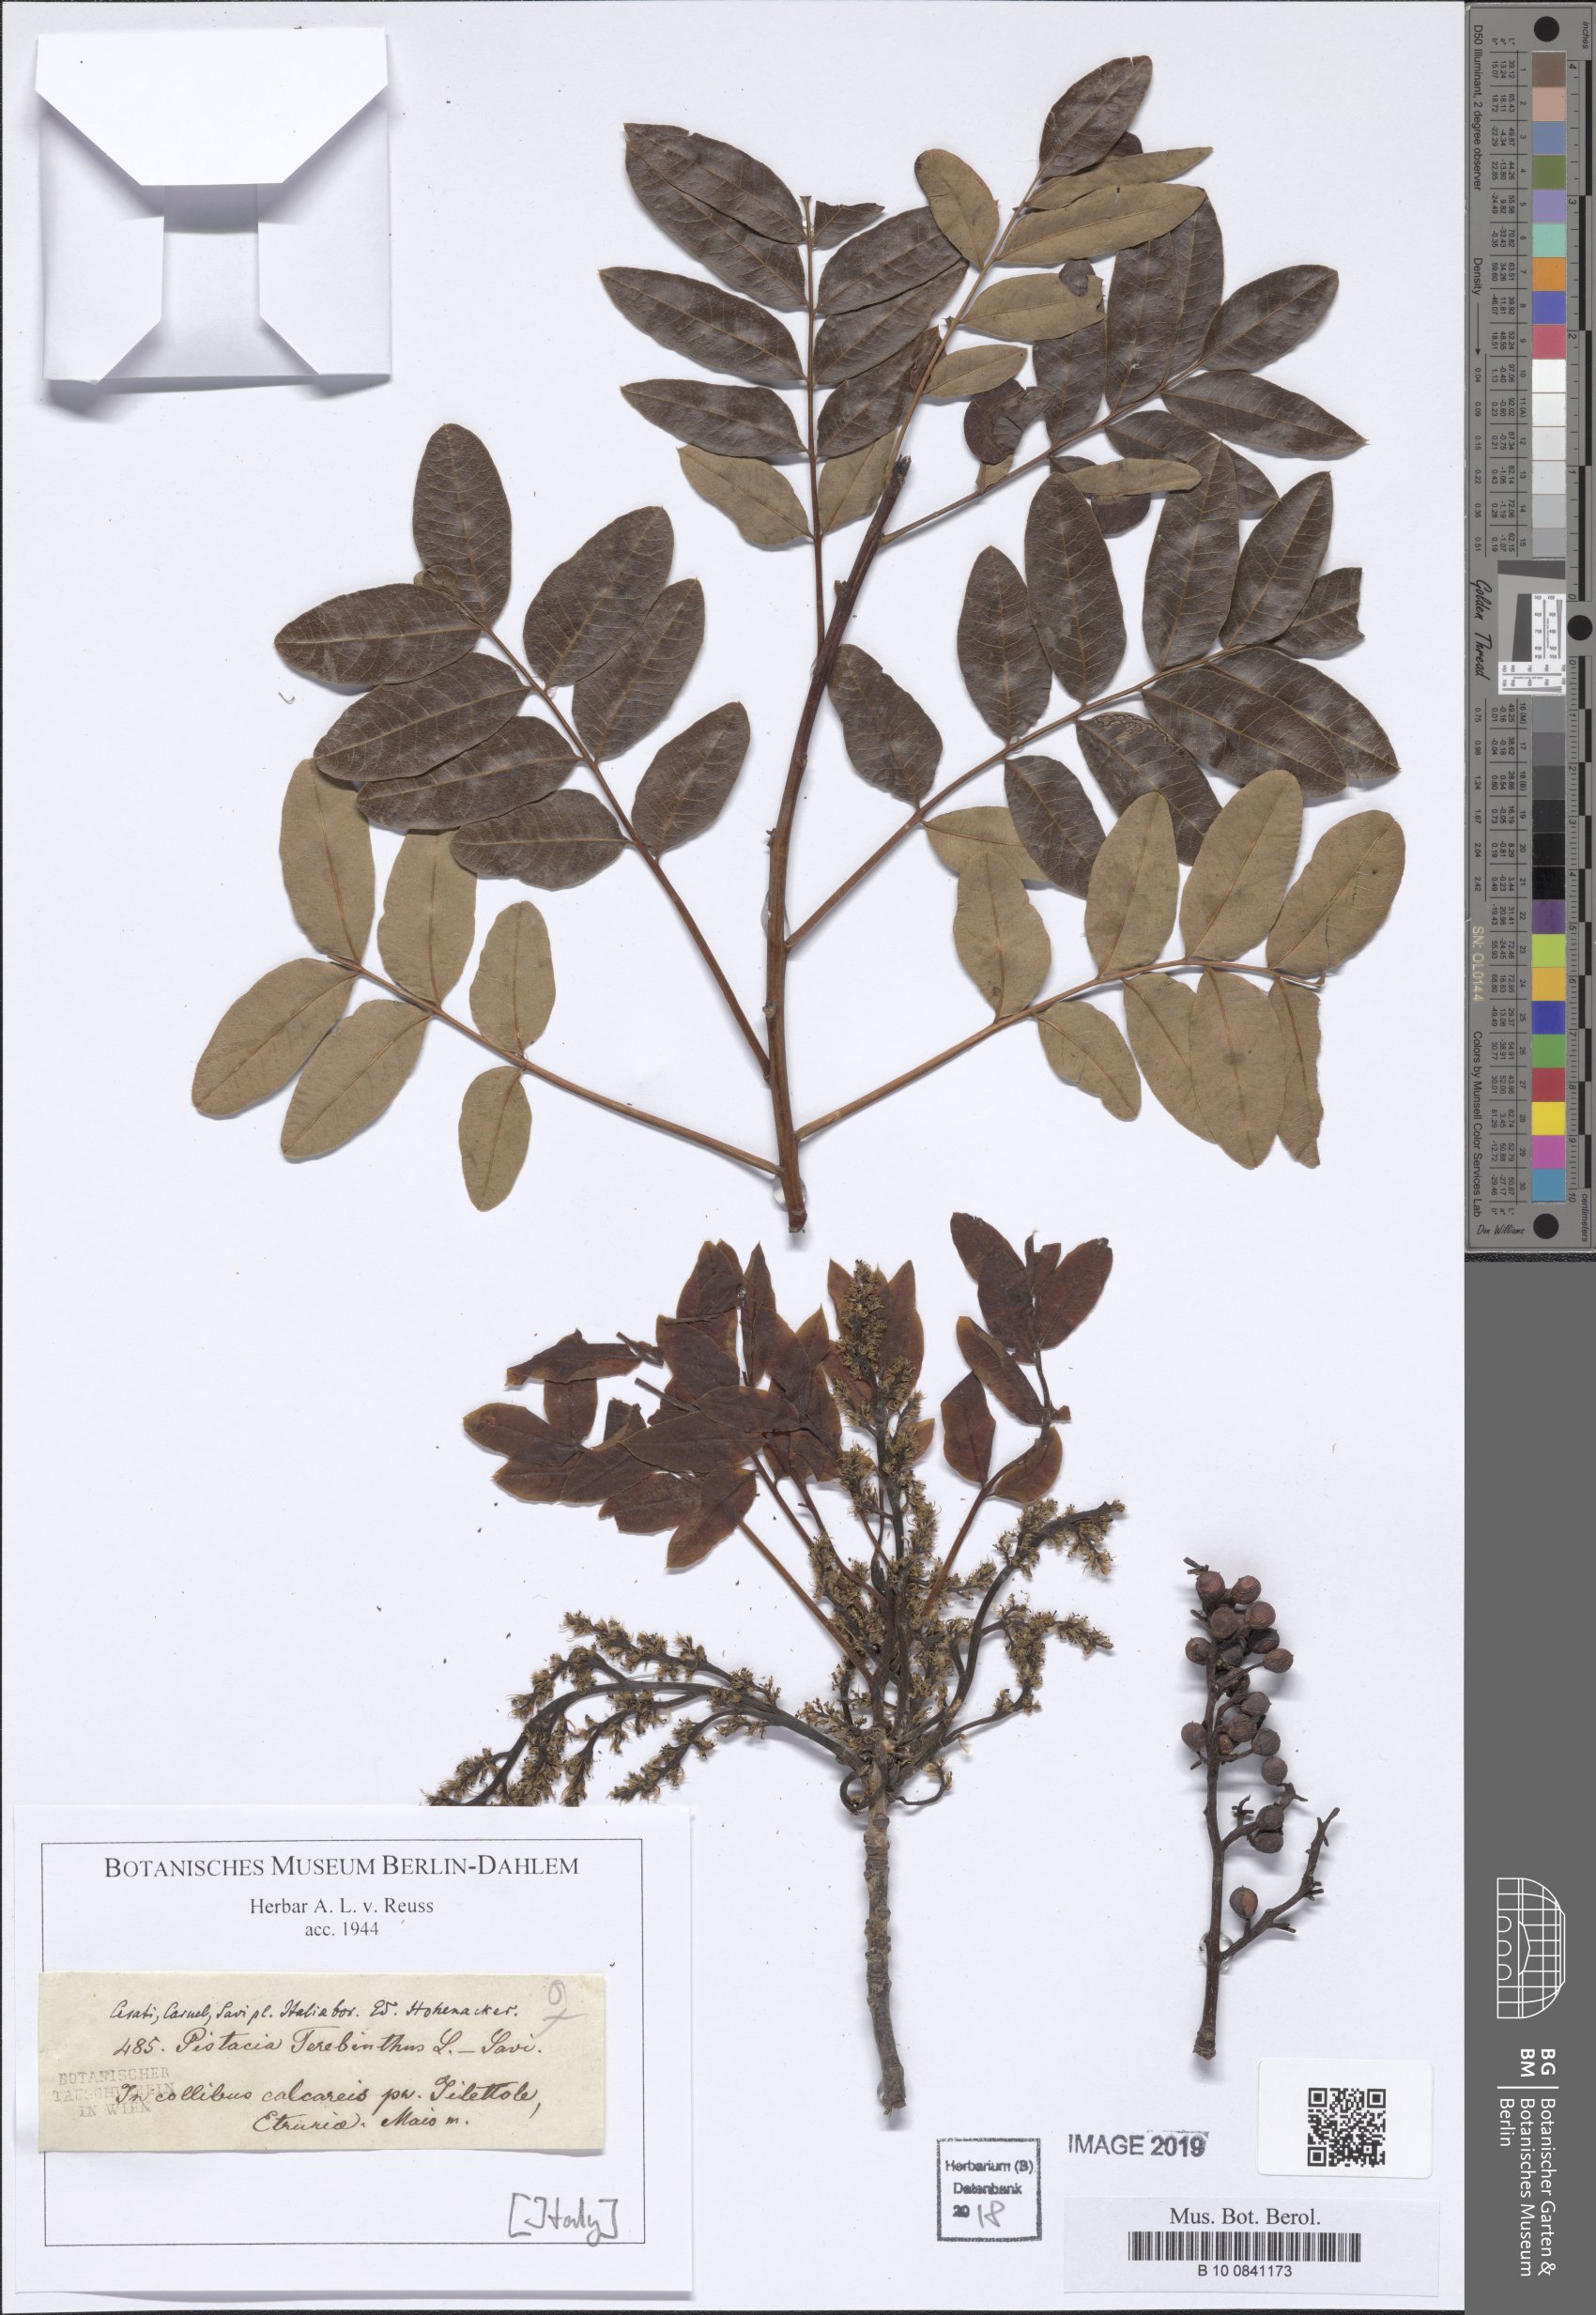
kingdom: Plantae
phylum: Tracheophyta
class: Magnoliopsida
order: Sapindales
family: Anacardiaceae
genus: Pistacia
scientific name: Pistacia terebinthus
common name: Terebinth
